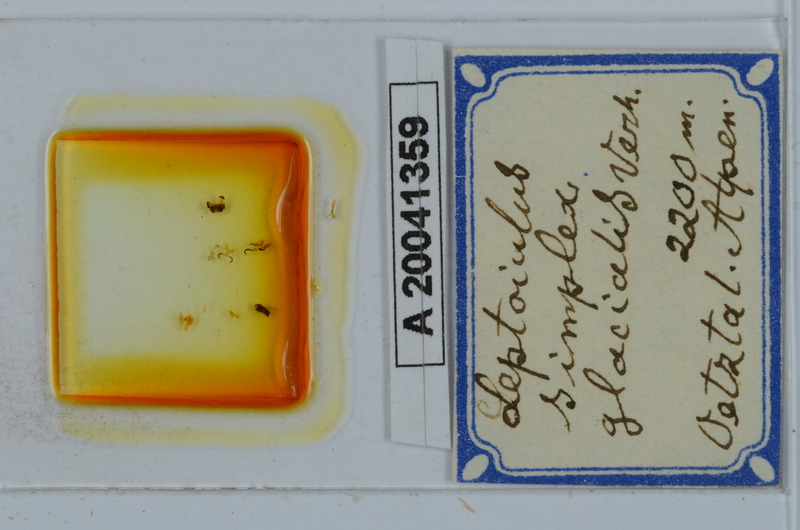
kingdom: Animalia
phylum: Arthropoda
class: Diplopoda
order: Julida
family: Julidae
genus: Leptoiulus
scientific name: Leptoiulus simplex
